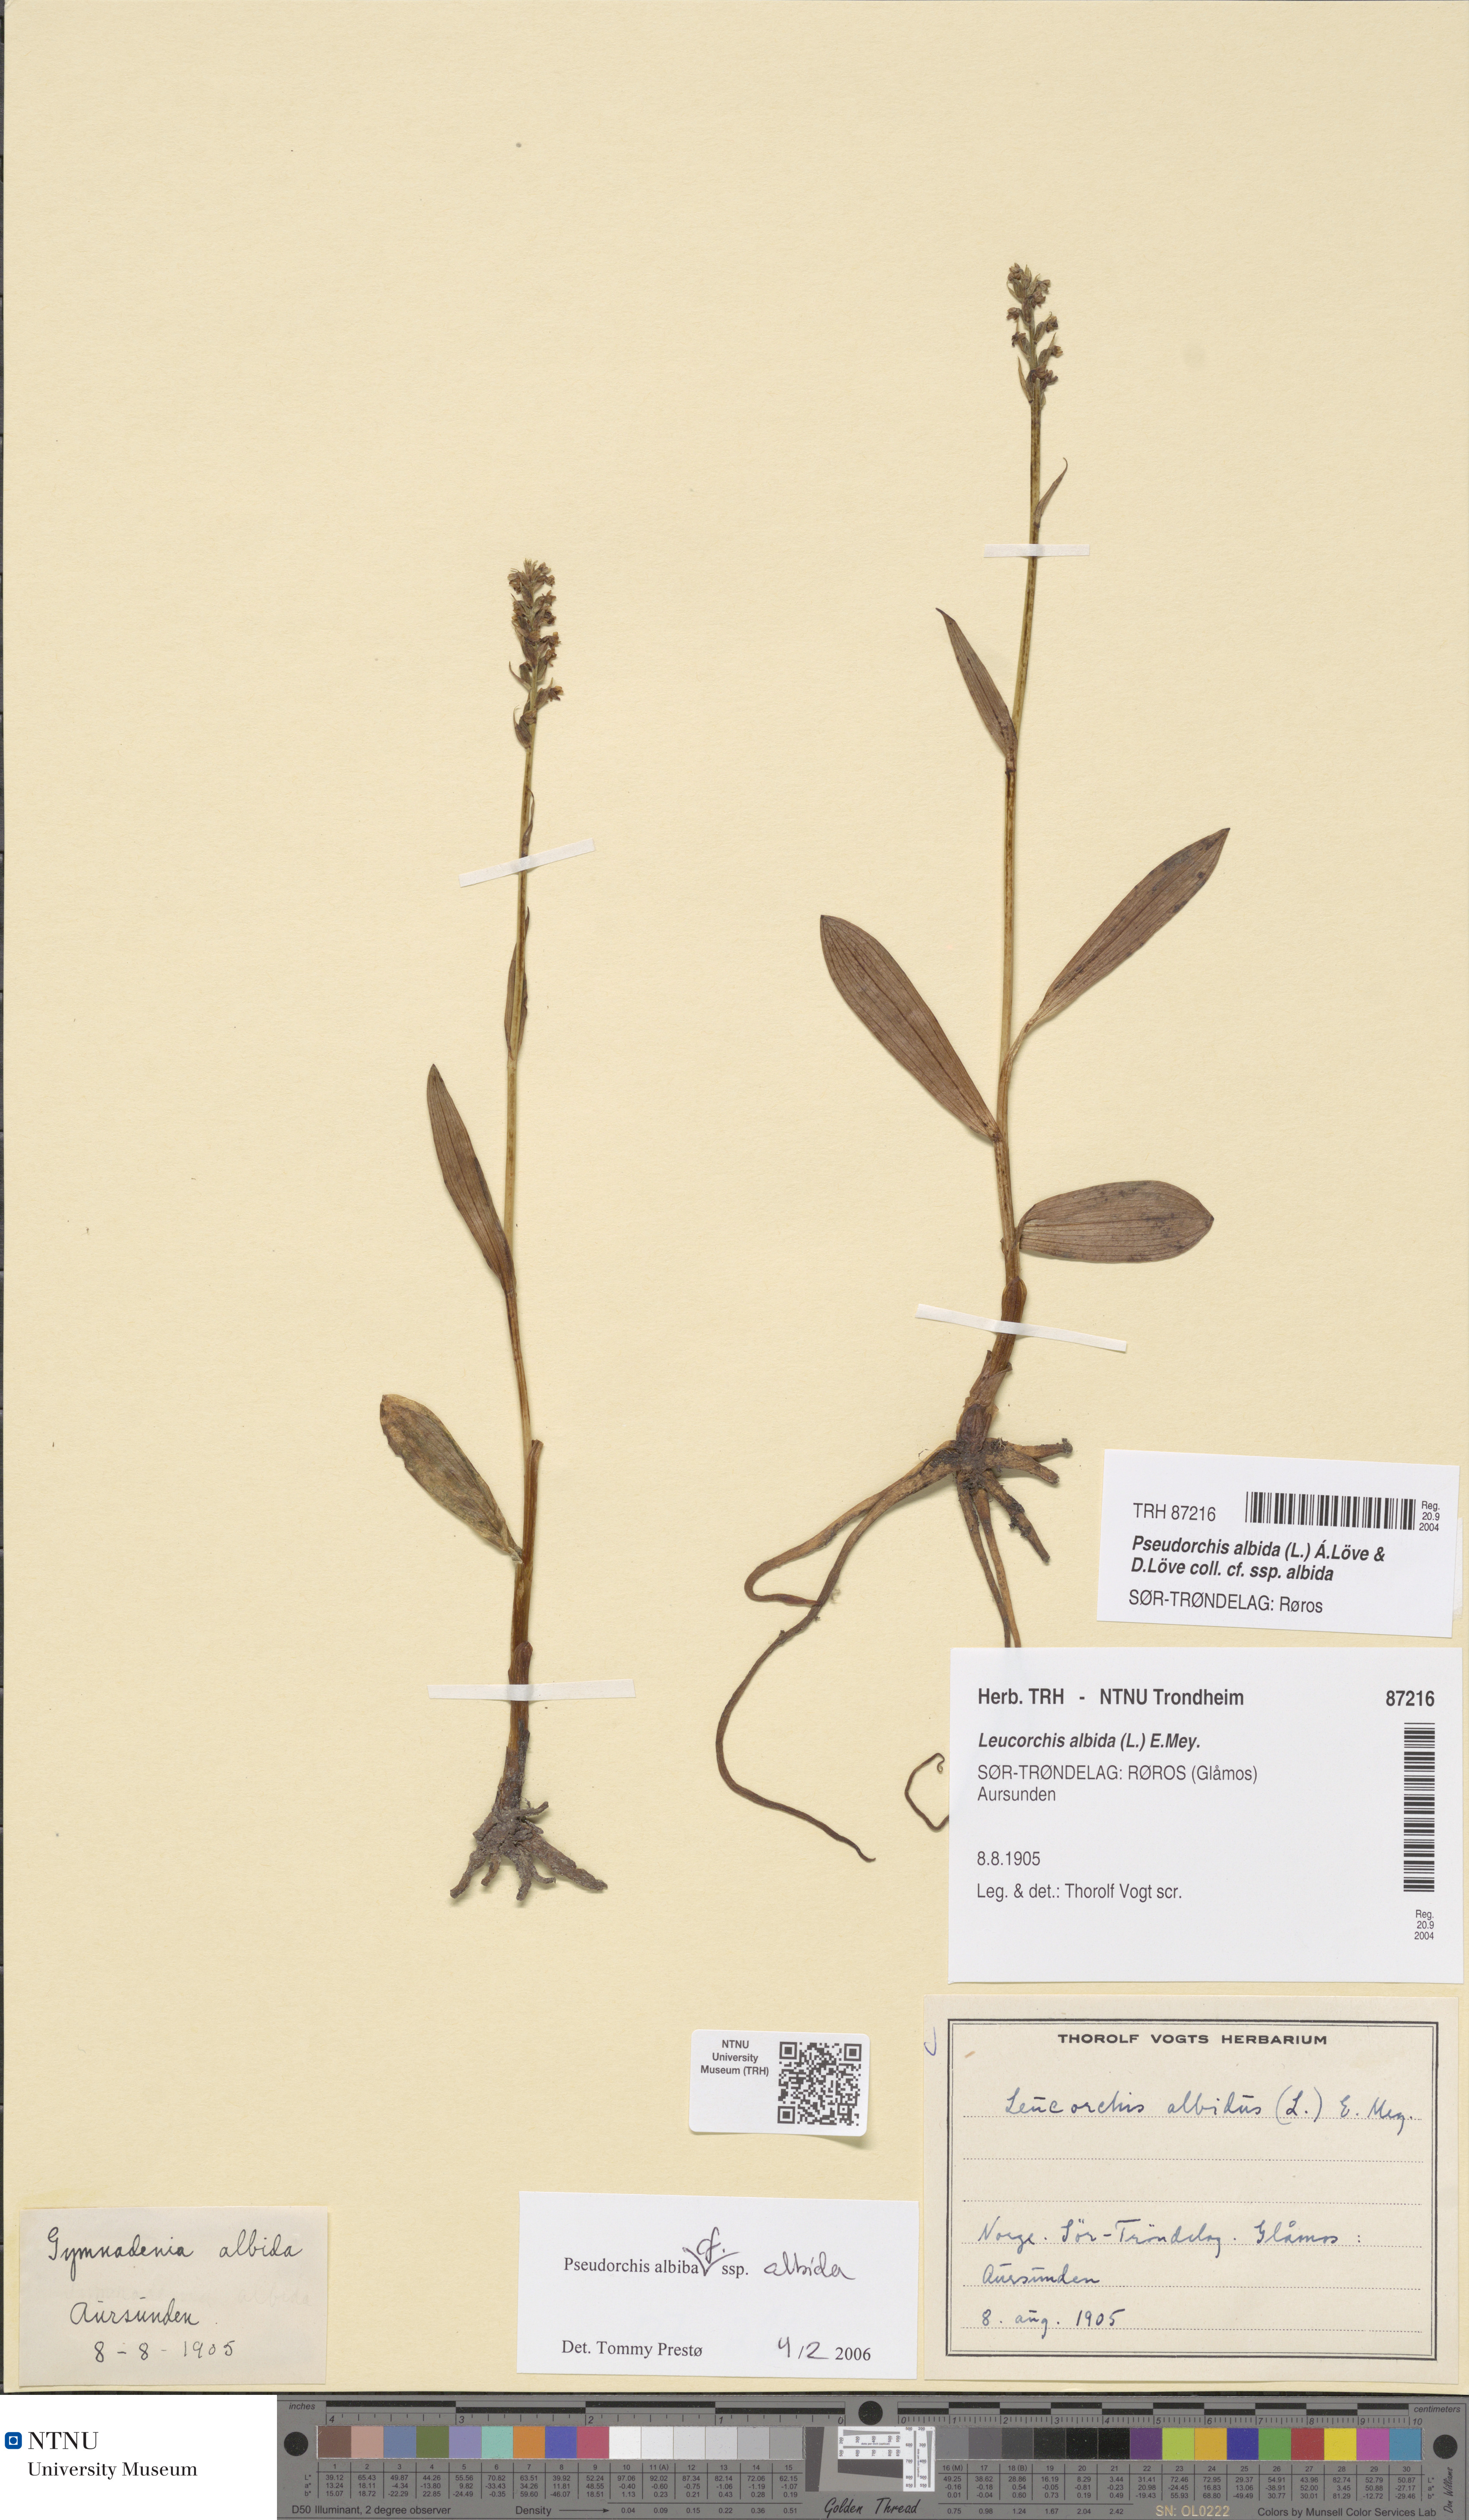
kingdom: Plantae
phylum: Tracheophyta
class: Liliopsida
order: Asparagales
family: Orchidaceae
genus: Pseudorchis
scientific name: Pseudorchis albida
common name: Small-white orchid
